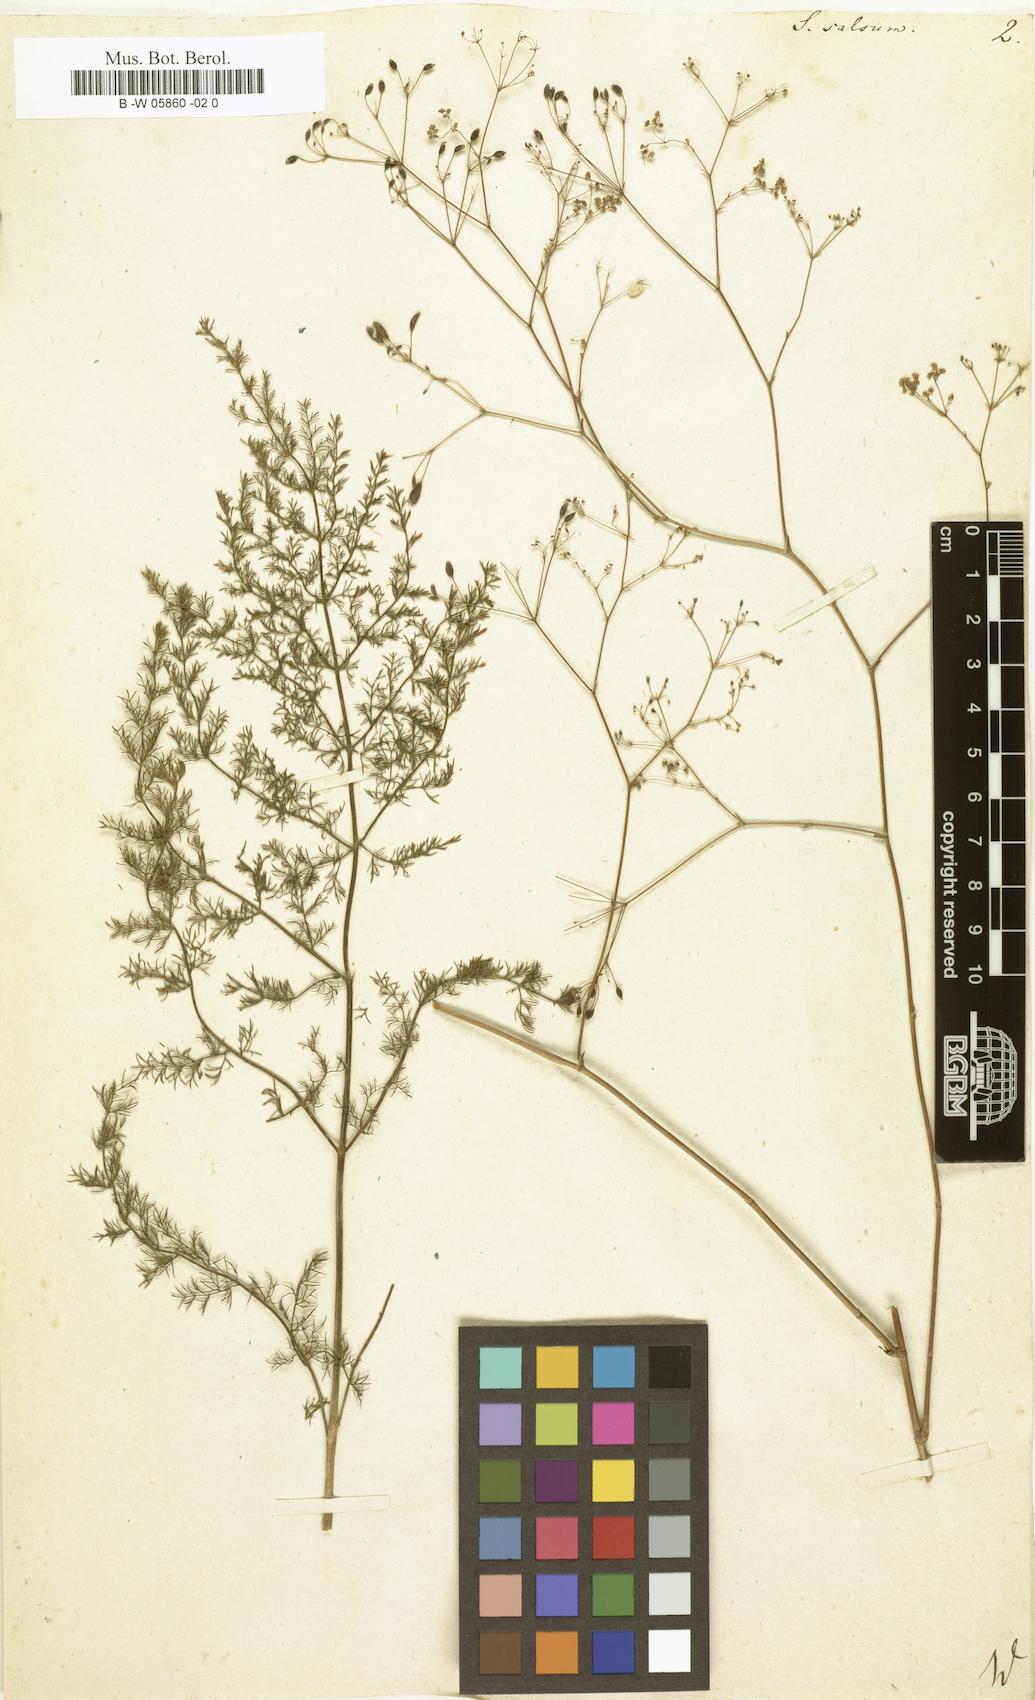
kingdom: Plantae
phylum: Tracheophyta
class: Magnoliopsida
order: Apiales
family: Apiaceae
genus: Palimbia
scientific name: Palimbia rediviva
